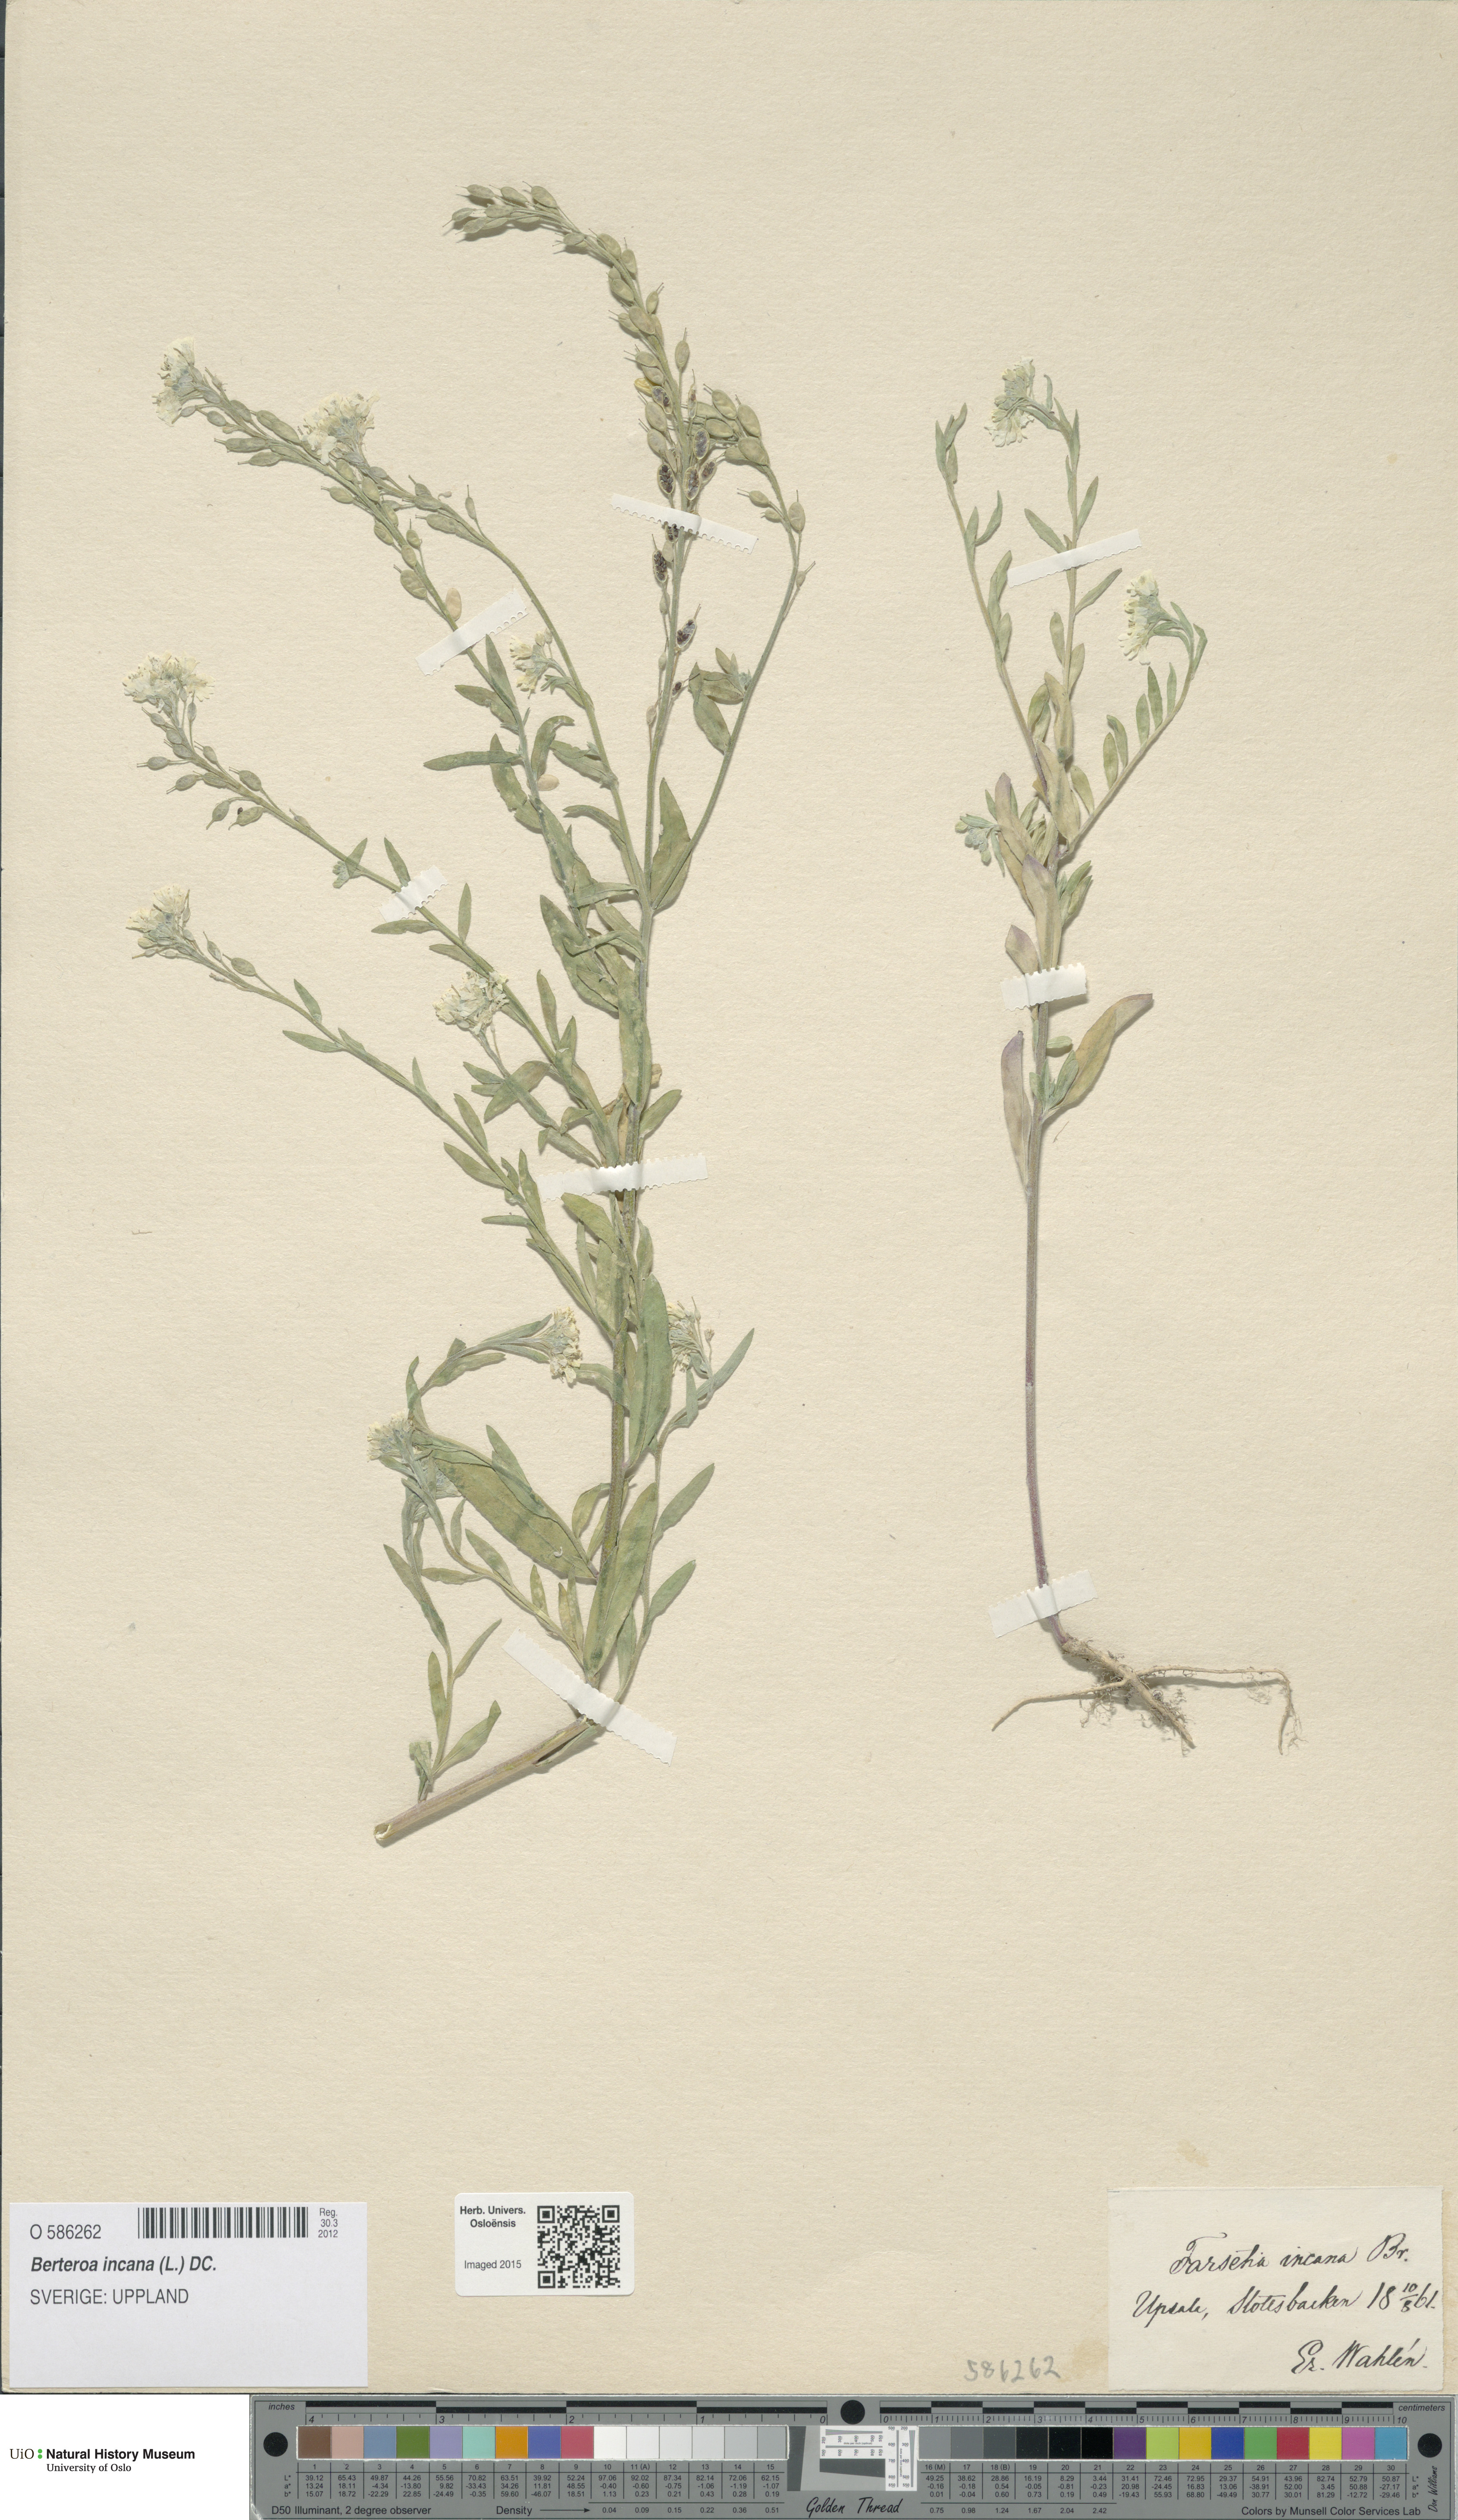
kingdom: Plantae
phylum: Tracheophyta
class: Magnoliopsida
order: Brassicales
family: Brassicaceae
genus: Berteroa
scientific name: Berteroa incana
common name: Hoary alison
